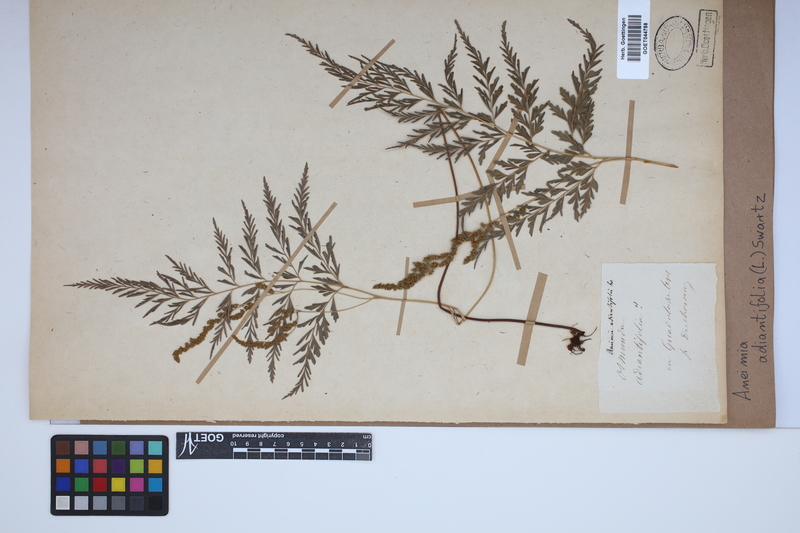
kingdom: Plantae
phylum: Tracheophyta
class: Polypodiopsida
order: Schizaeales
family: Anemiaceae
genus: Anemia
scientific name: Anemia adiantifolia
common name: Pine fern
